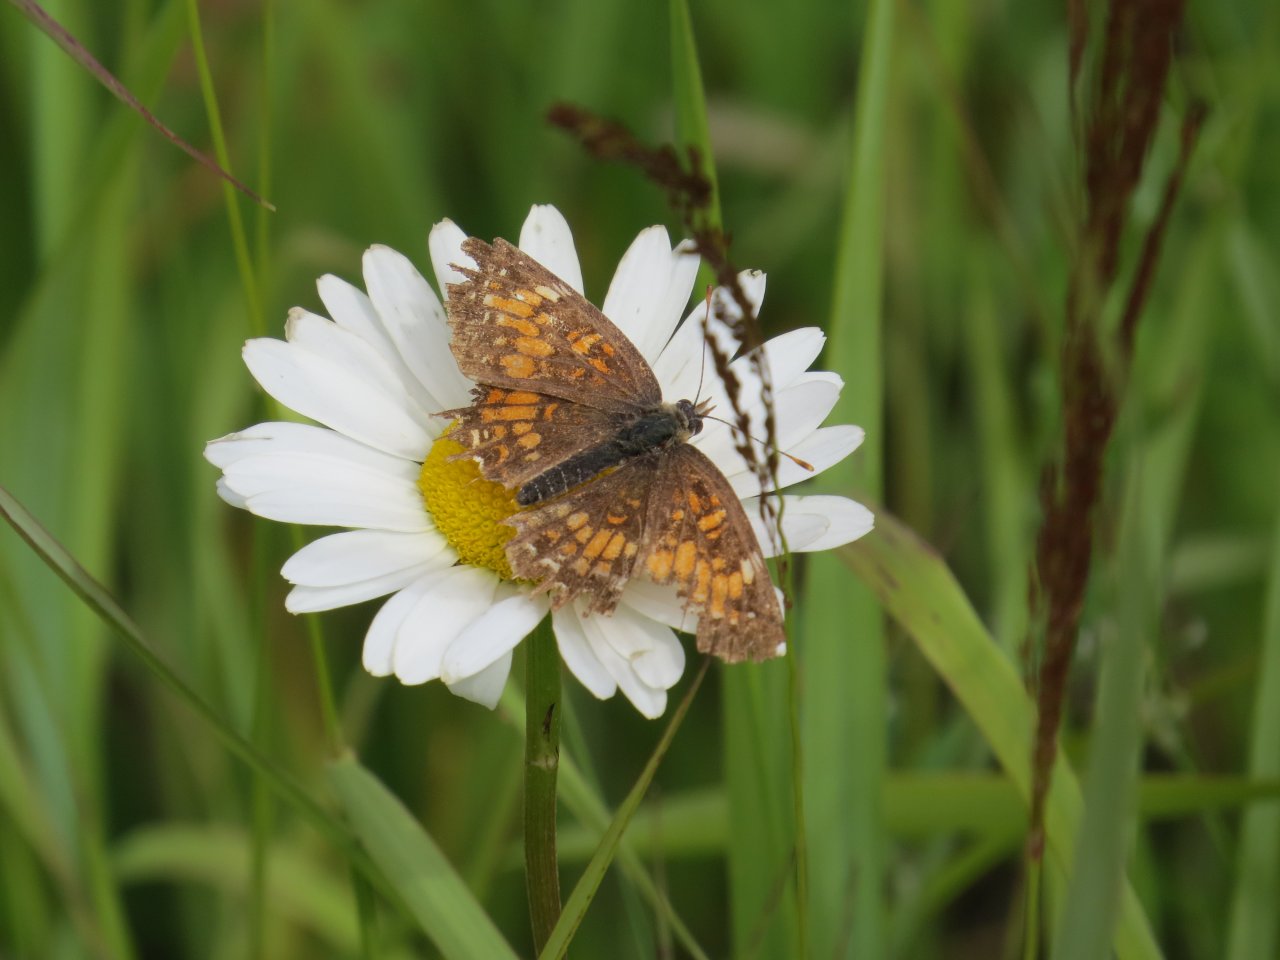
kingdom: Animalia
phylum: Arthropoda
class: Insecta
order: Lepidoptera
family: Nymphalidae
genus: Chlosyne
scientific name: Chlosyne harrisii
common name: Harris's Checkerspot
